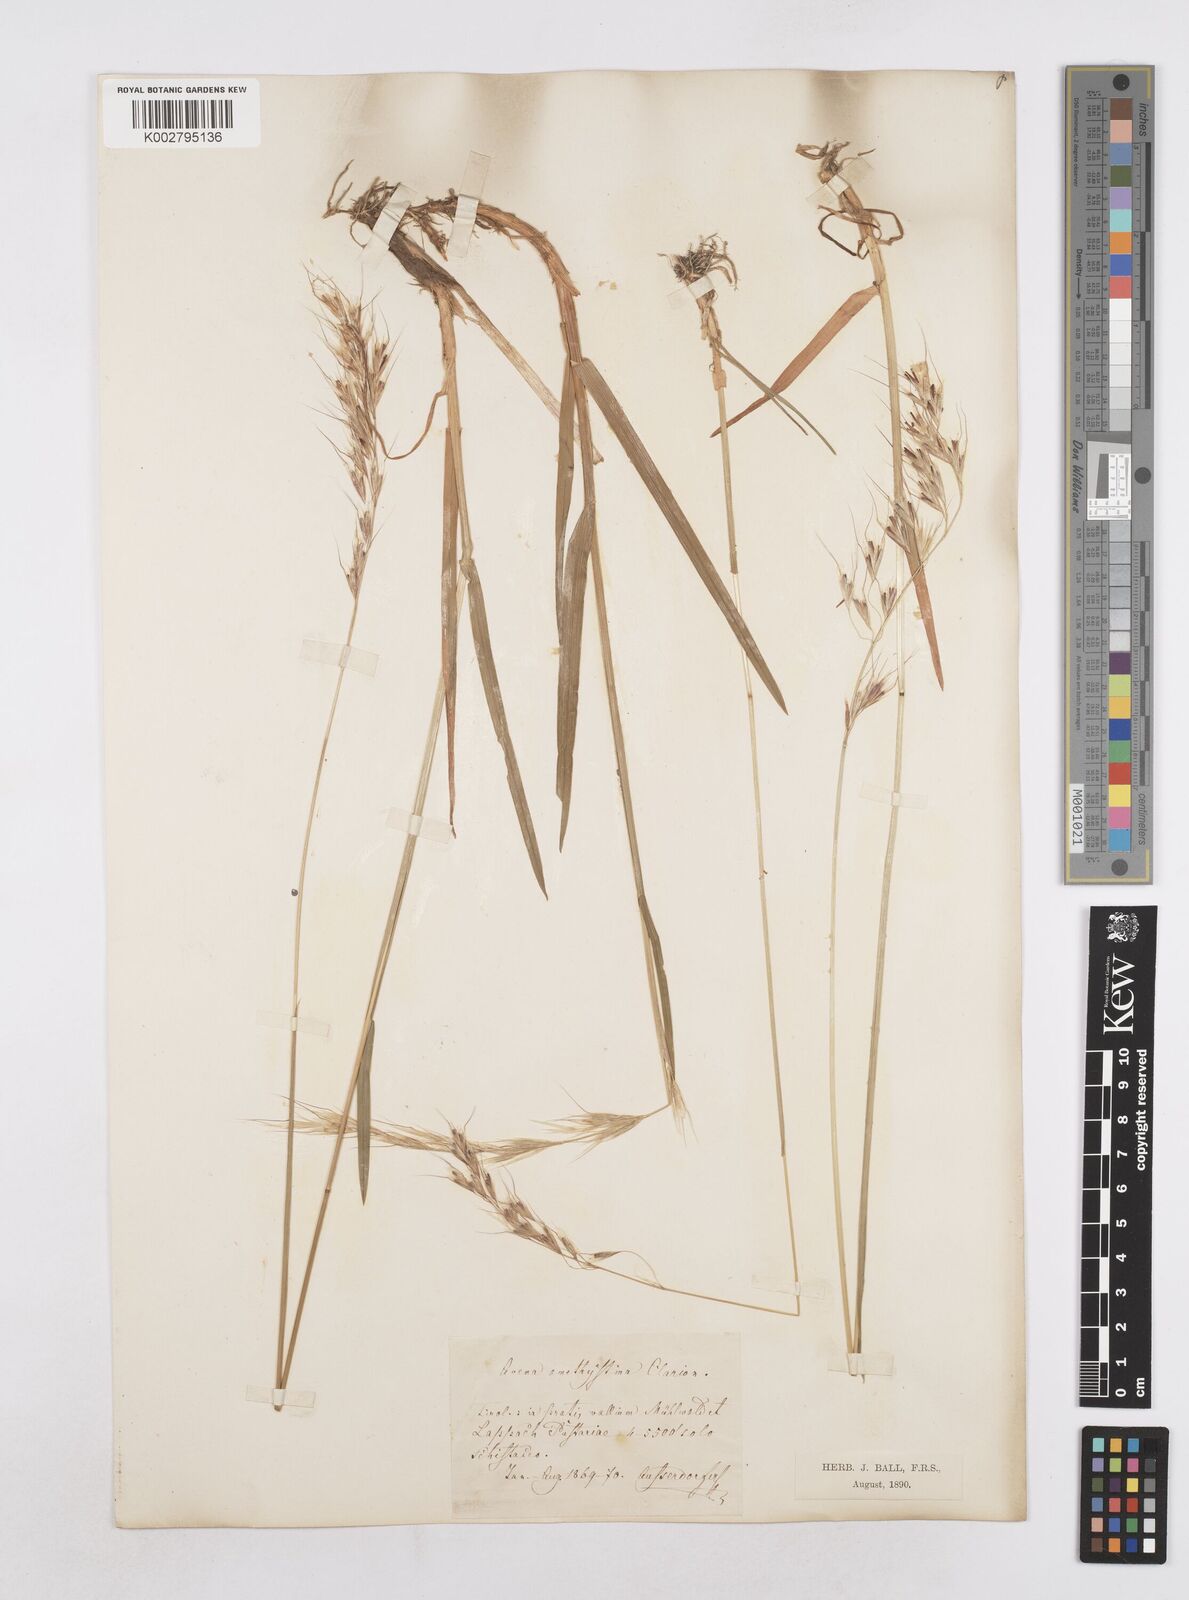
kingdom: Plantae
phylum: Tracheophyta
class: Liliopsida
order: Poales
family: Poaceae
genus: Helictochloa
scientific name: Helictochloa pratensis
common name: Meadow oat grass
